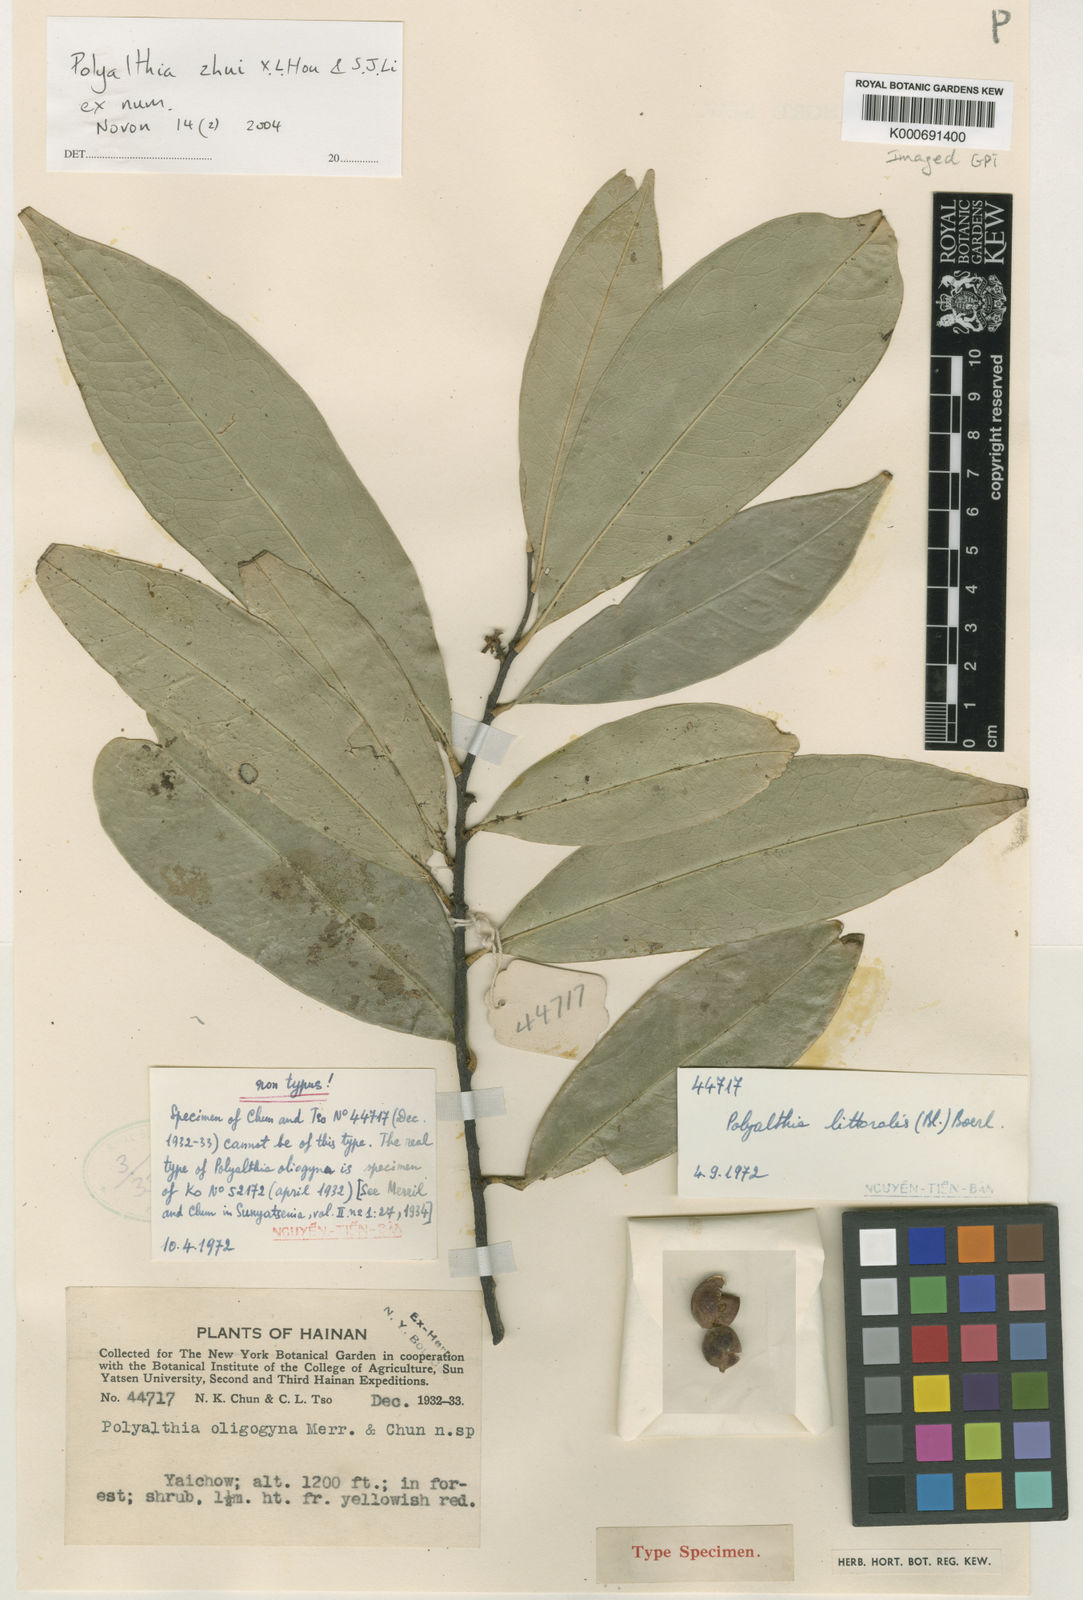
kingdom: Plantae
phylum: Tracheophyta
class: Magnoliopsida
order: Magnoliales
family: Annonaceae
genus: Marsypopetalum
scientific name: Marsypopetalum littorale
